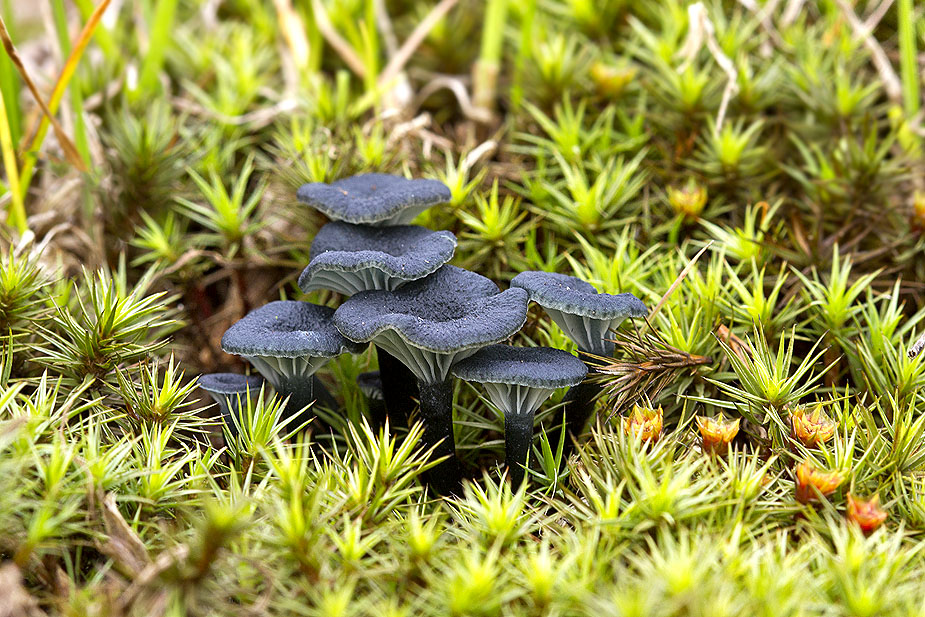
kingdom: Fungi
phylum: Basidiomycota
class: Agaricomycetes
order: Agaricales
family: Hygrophoraceae
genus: Arrhenia
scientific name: Arrhenia chlorocyanea
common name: blågrøn fontænehat
